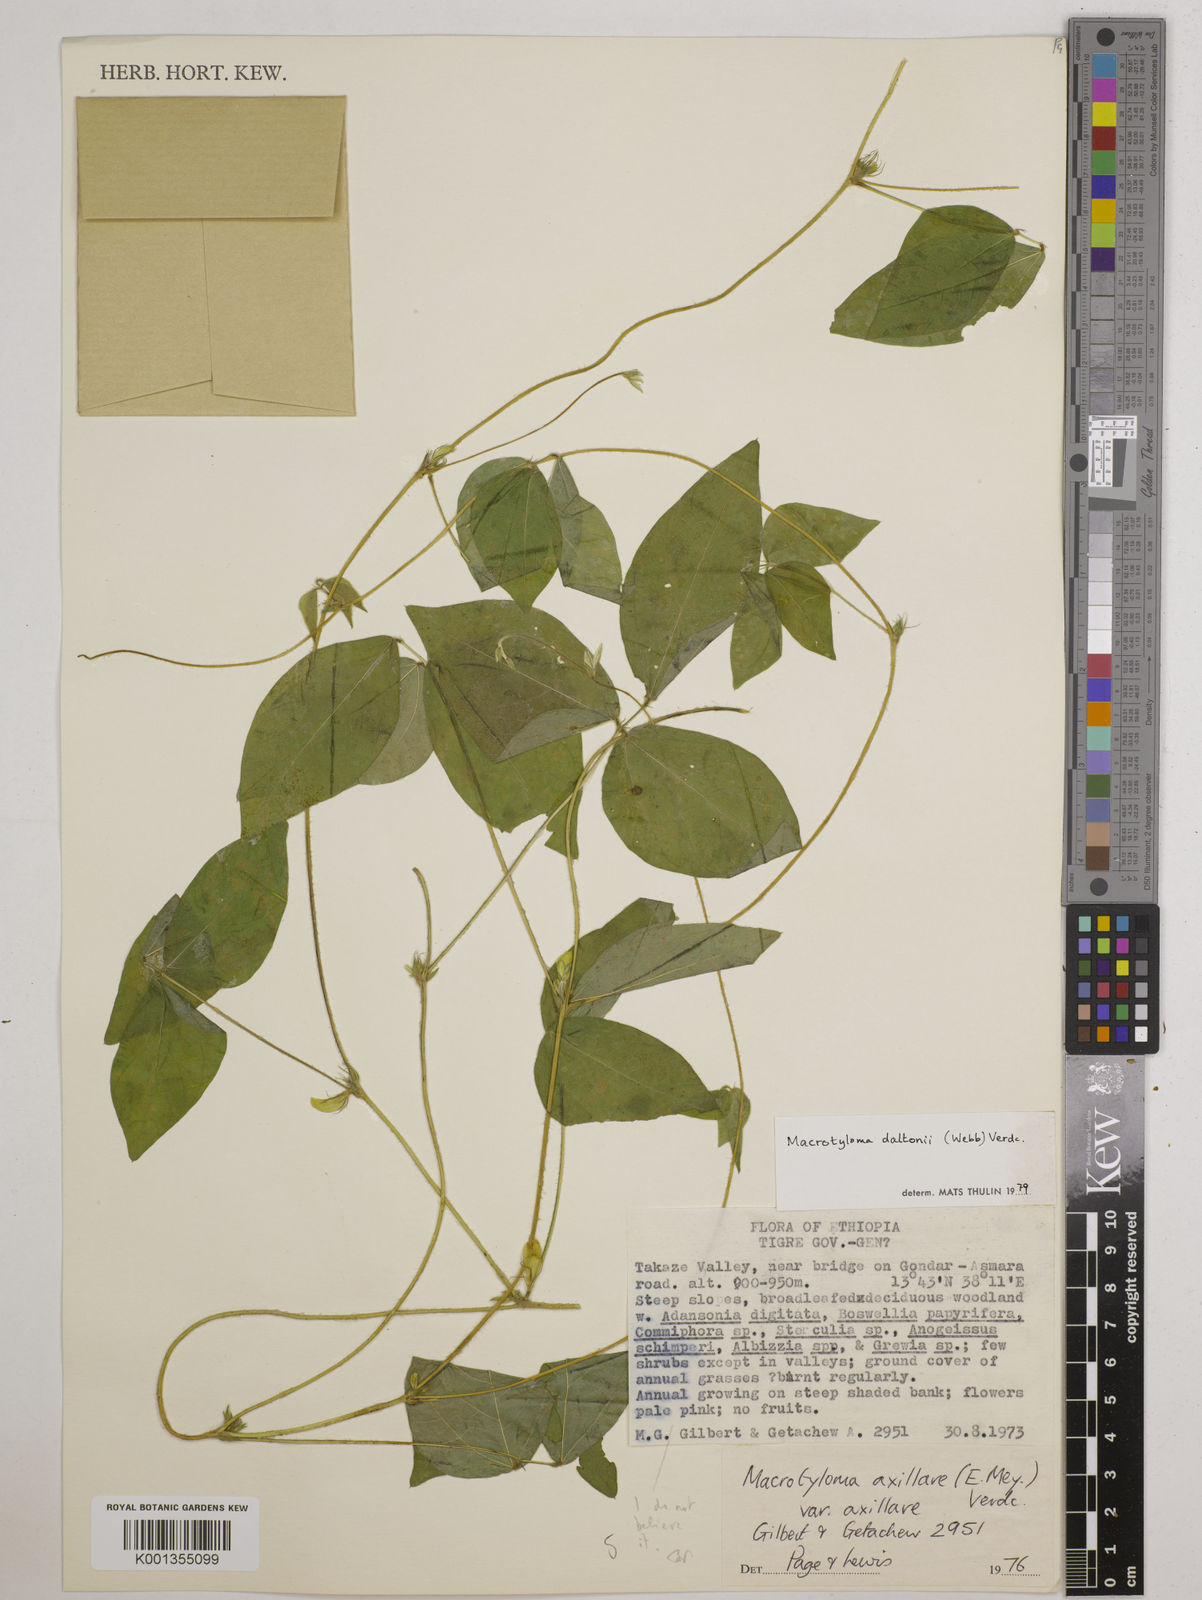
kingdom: Plantae
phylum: Tracheophyta
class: Magnoliopsida
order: Fabales
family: Fabaceae
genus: Macrotyloma
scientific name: Macrotyloma daltonii
